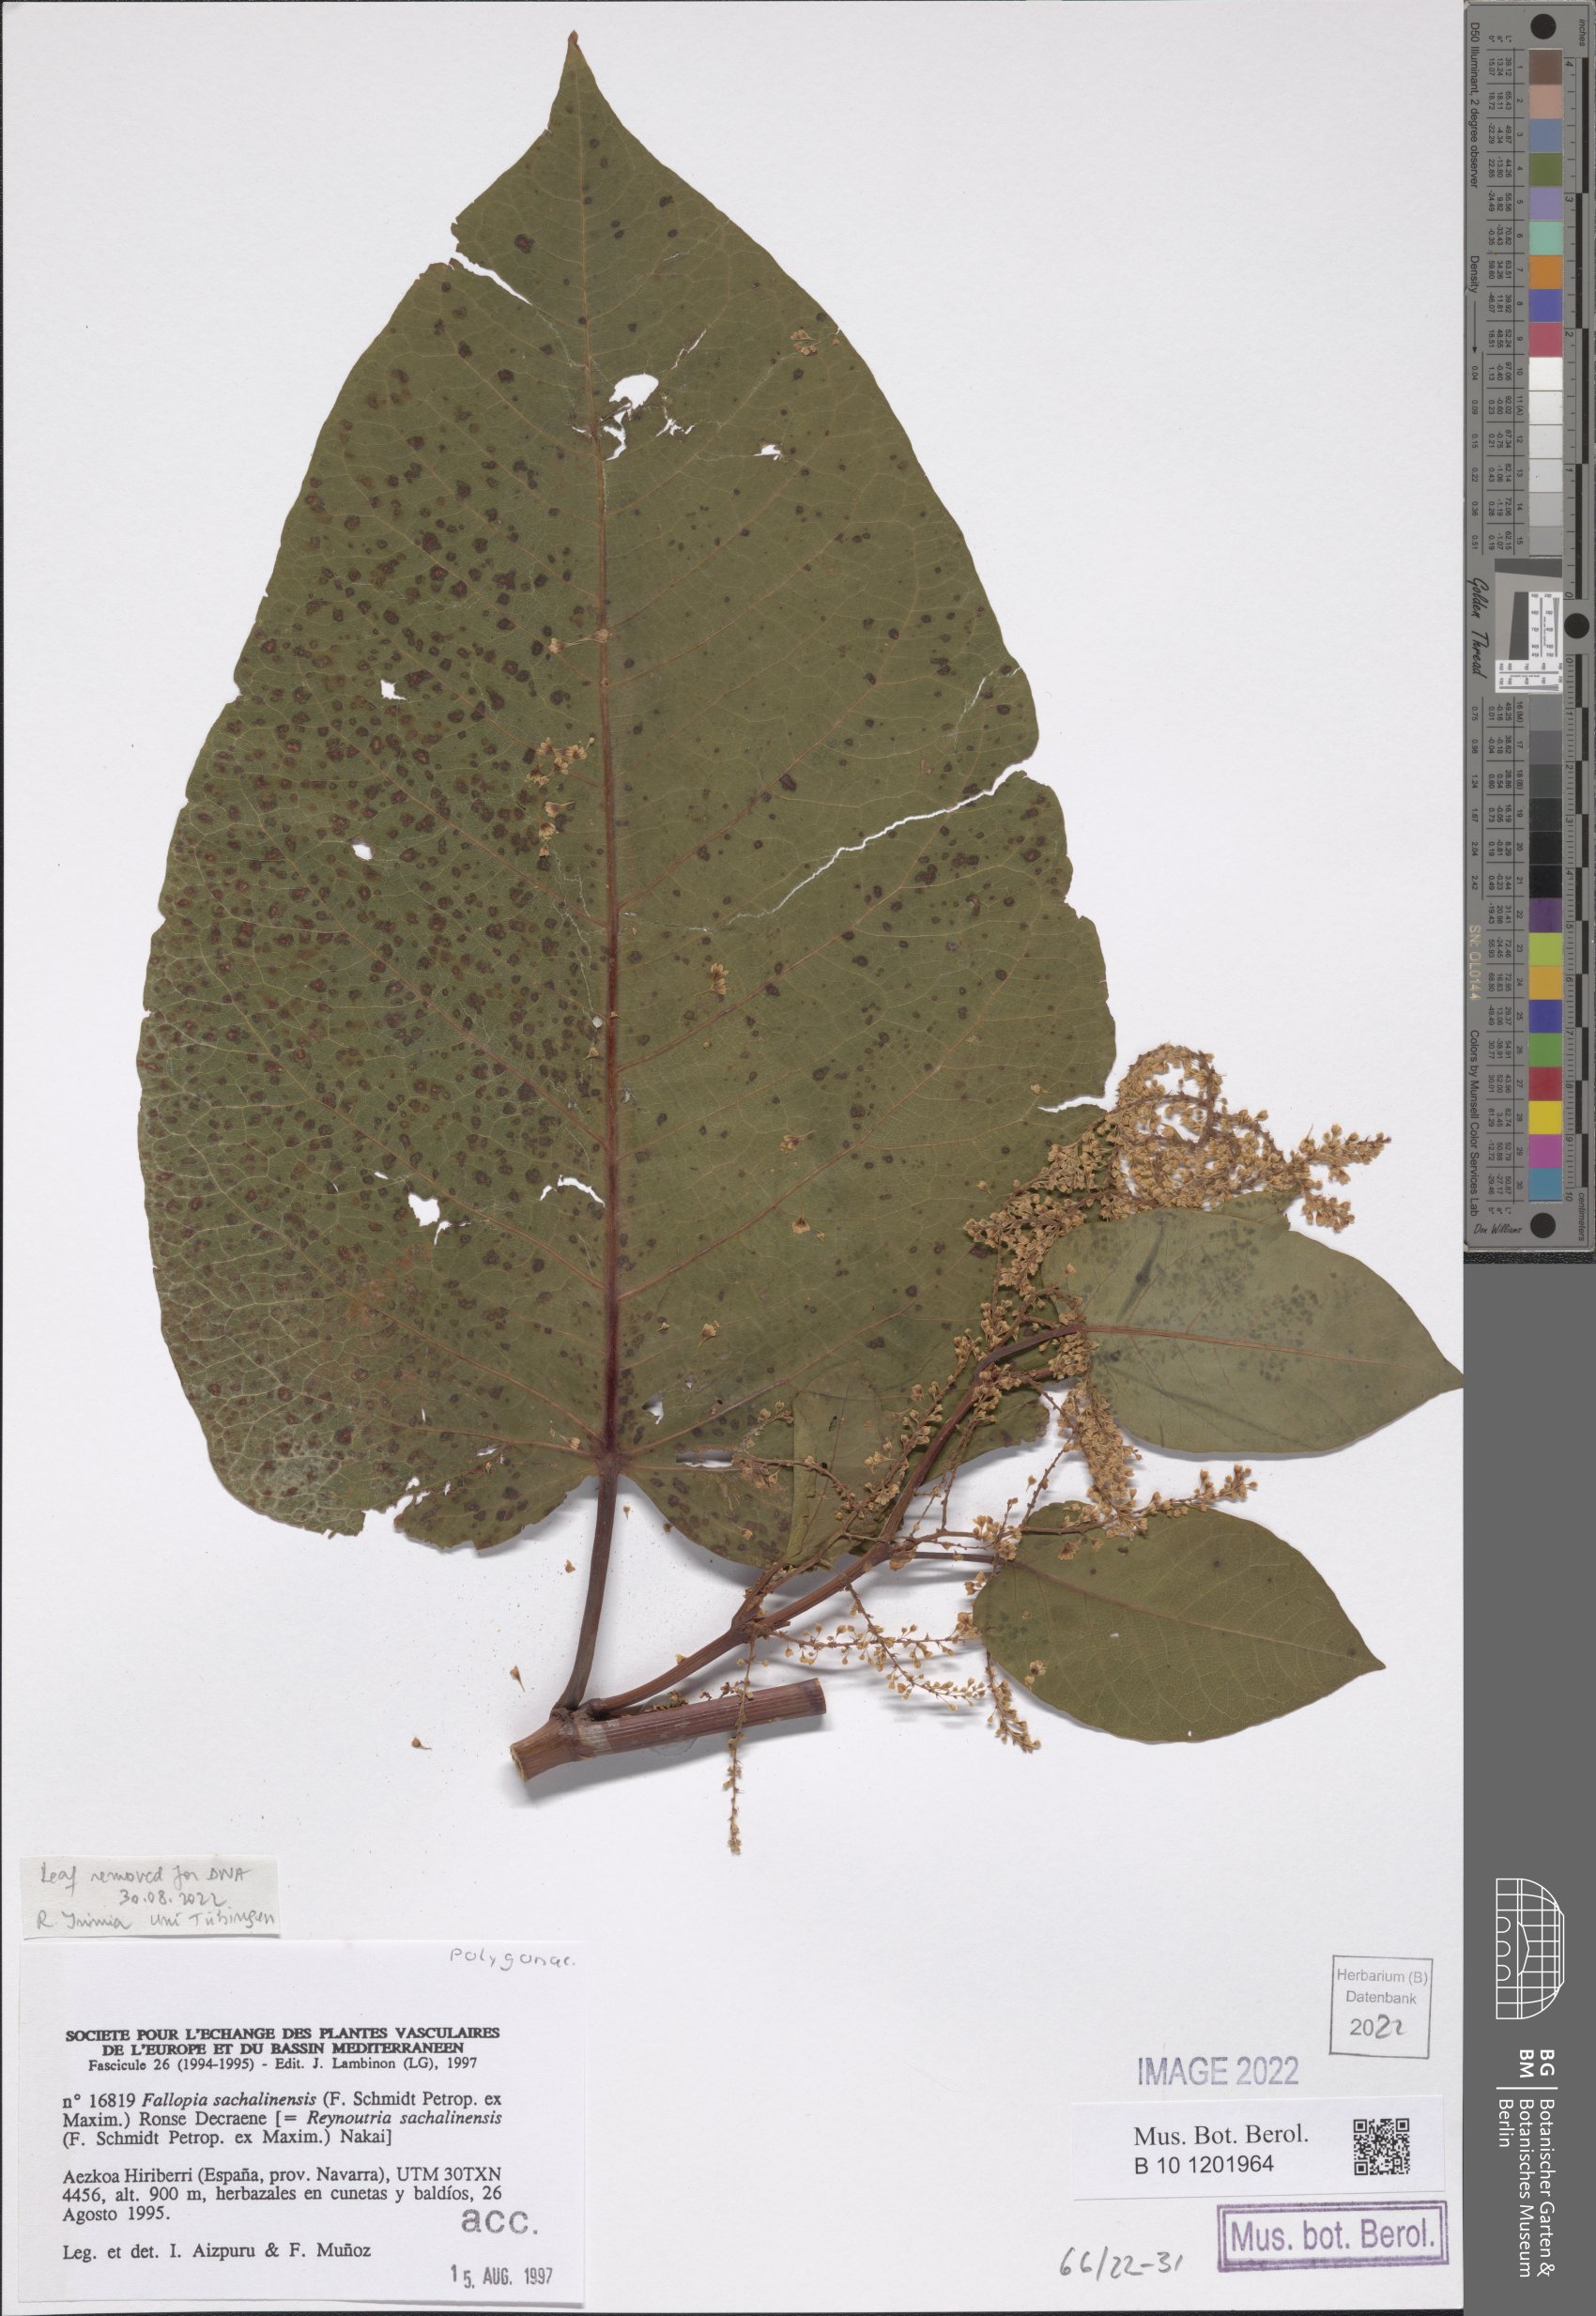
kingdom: Plantae
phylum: Tracheophyta
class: Magnoliopsida
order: Caryophyllales
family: Polygonaceae
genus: Reynoutria
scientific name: Reynoutria sachalinensis
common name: Giant knotweed
